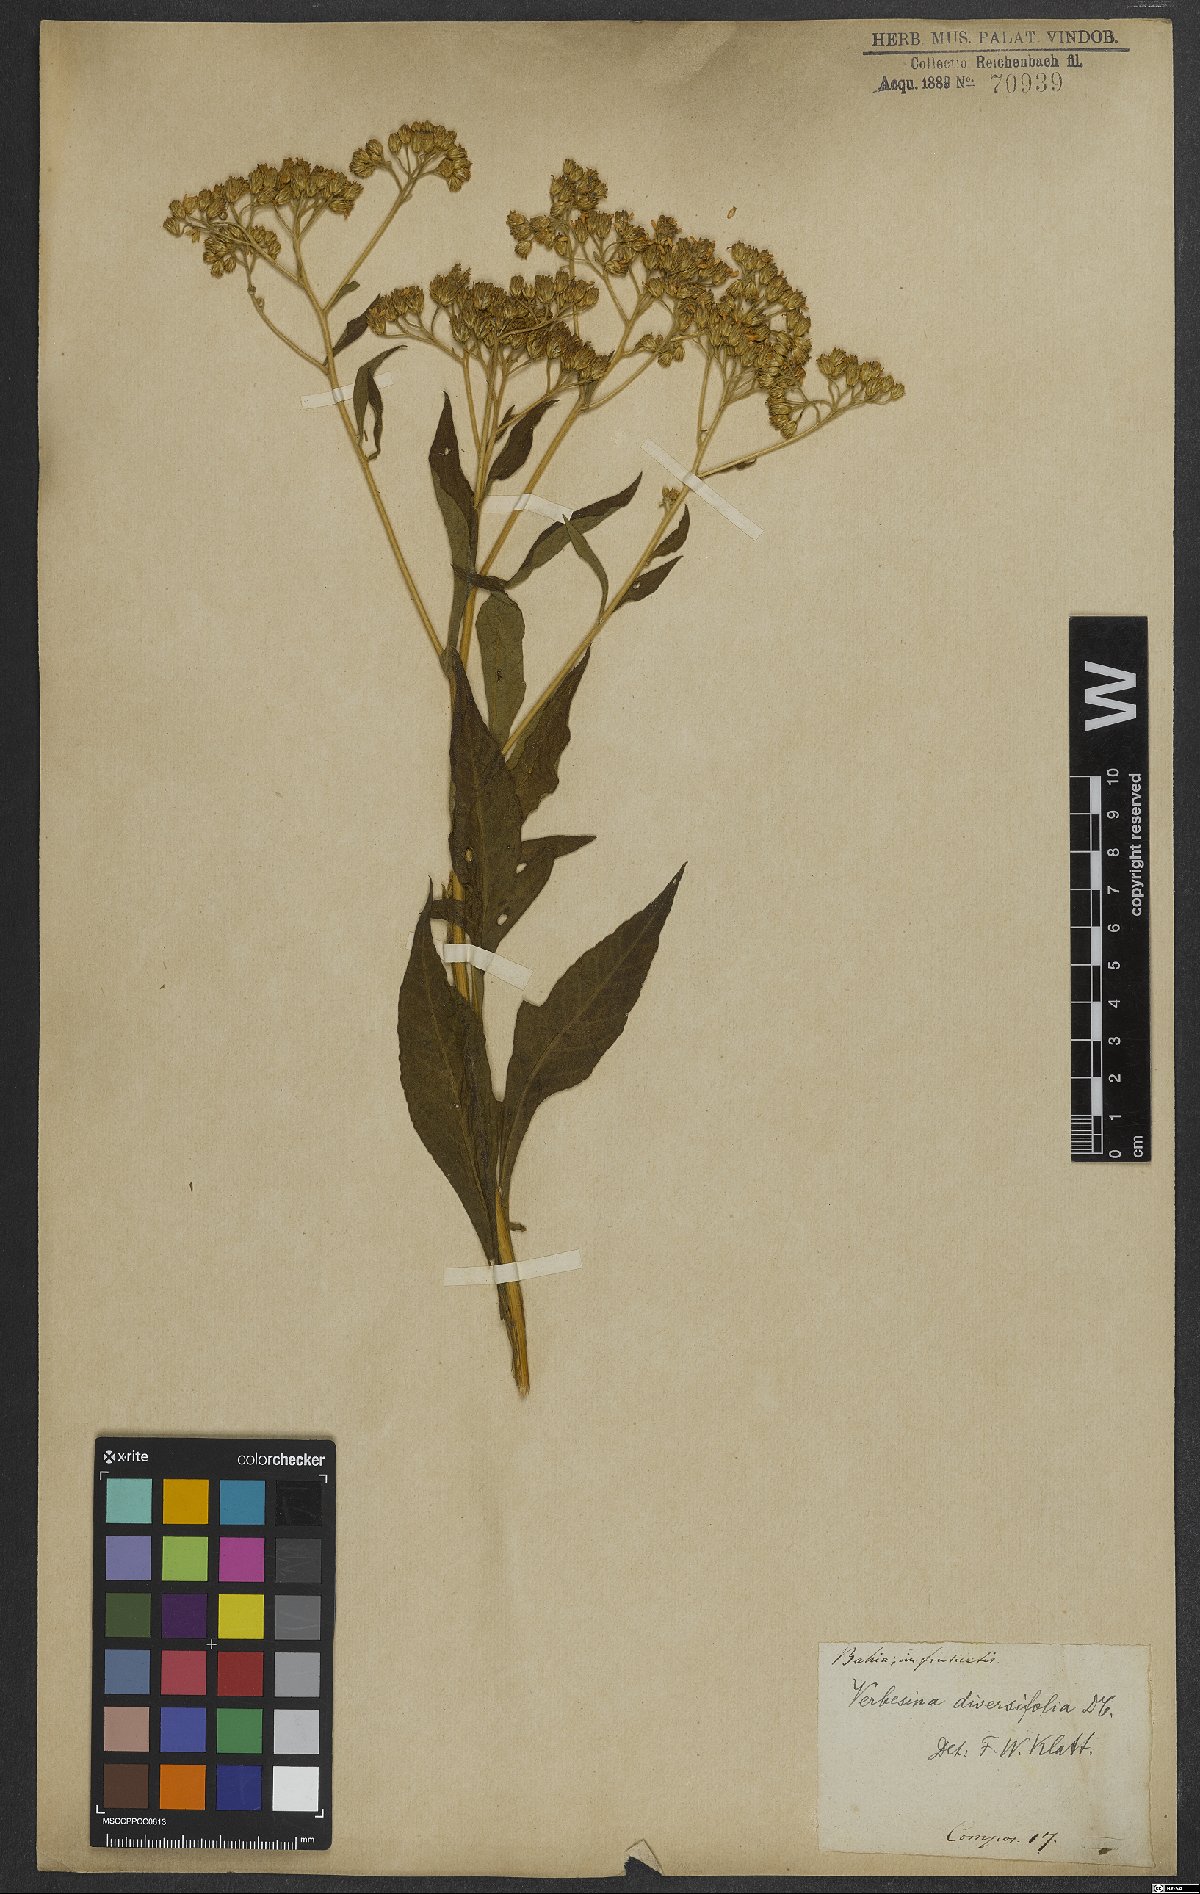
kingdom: Plantae
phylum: Tracheophyta
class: Magnoliopsida
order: Asterales
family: Asteraceae
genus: Vernonia
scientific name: Vernonia diversifolia
